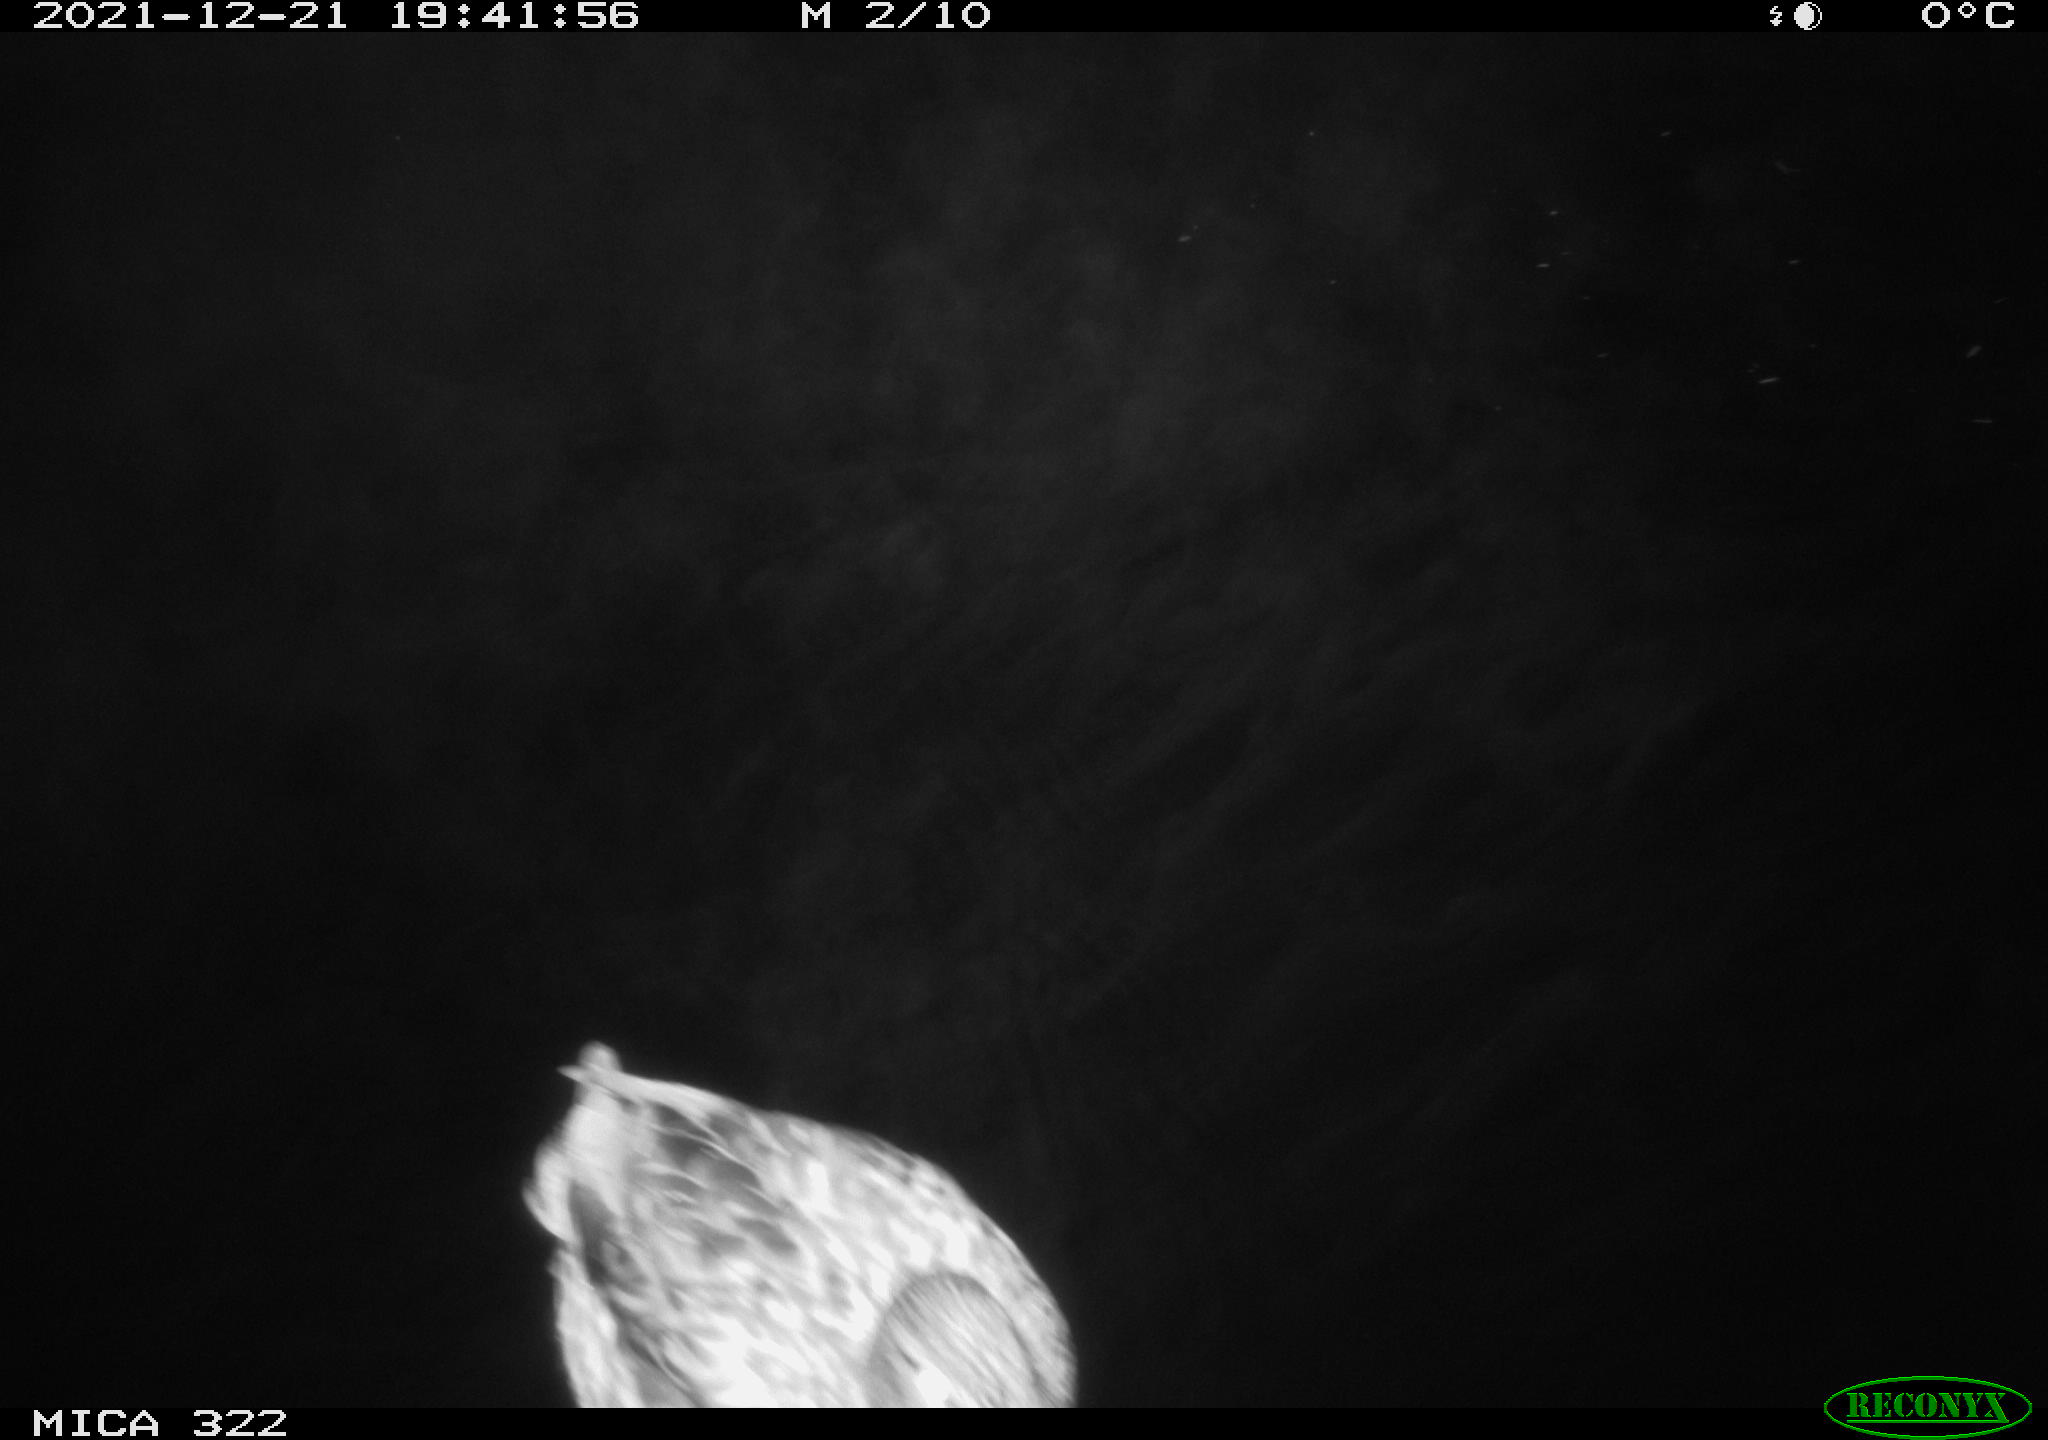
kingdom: Animalia
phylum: Chordata
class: Aves
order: Anseriformes
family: Anatidae
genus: Anas
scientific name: Anas platyrhynchos
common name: Mallard
